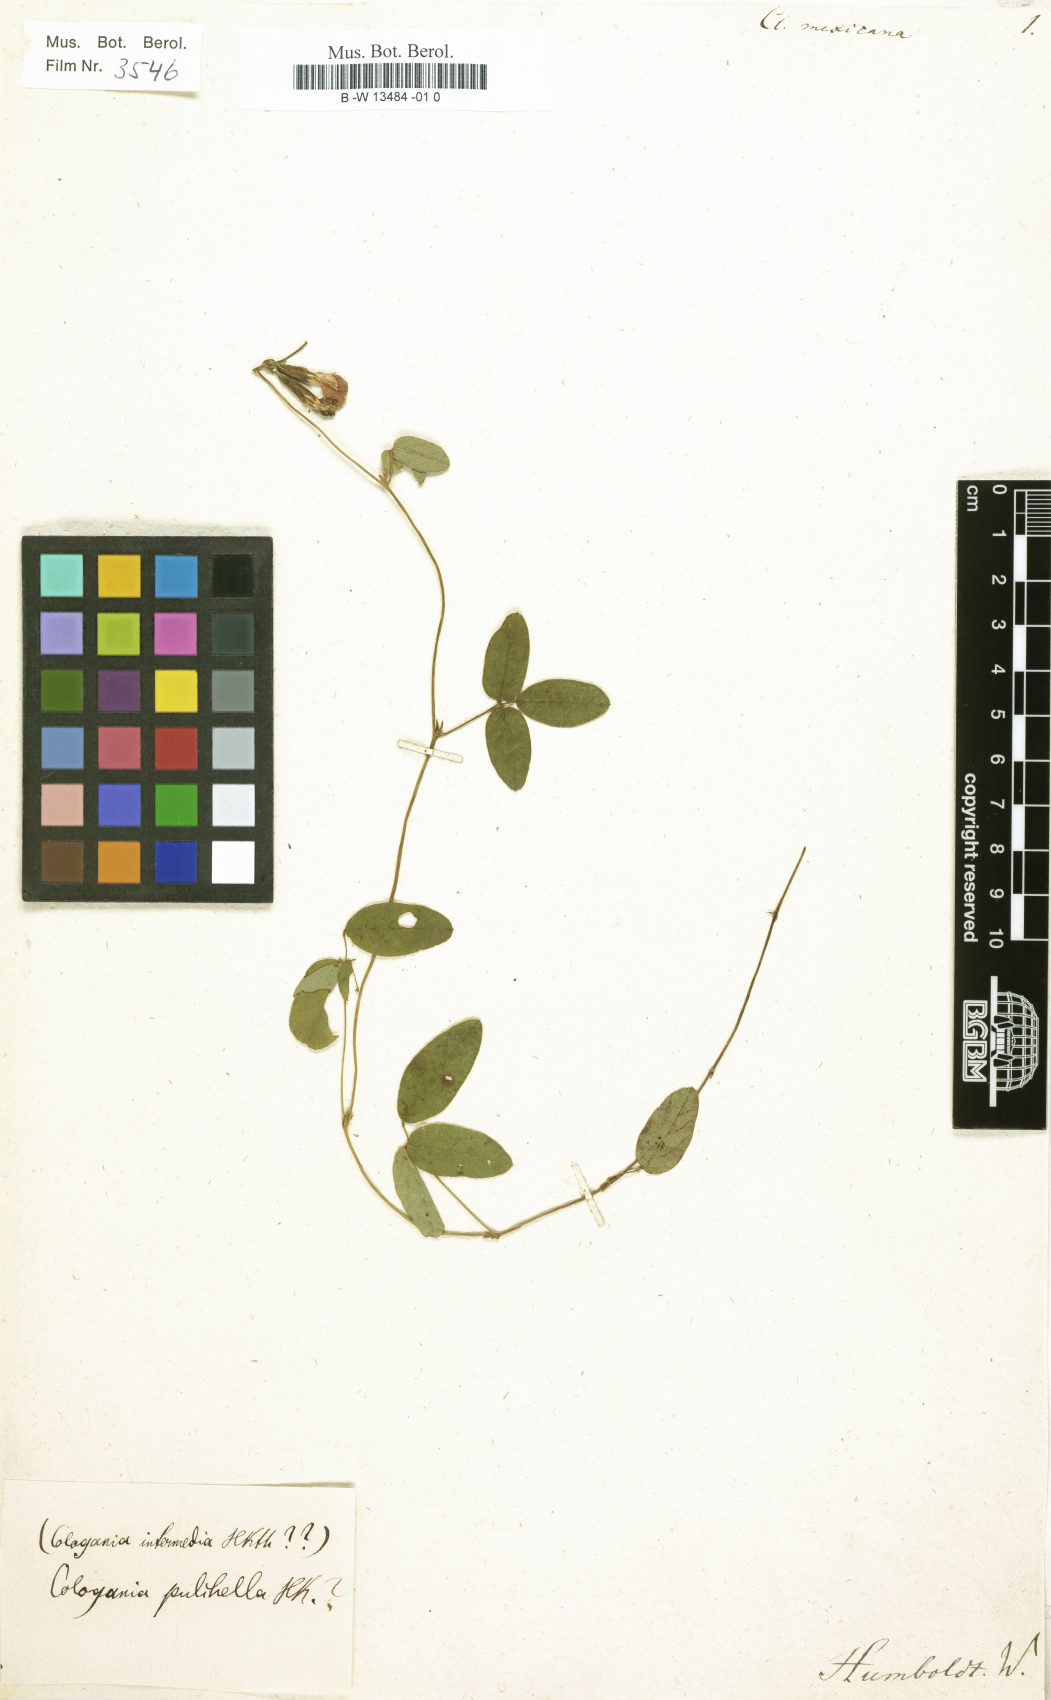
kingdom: Plantae
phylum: Tracheophyta
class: Magnoliopsida
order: Fabales
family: Fabaceae
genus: Clitoria
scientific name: Clitoria mexicana
